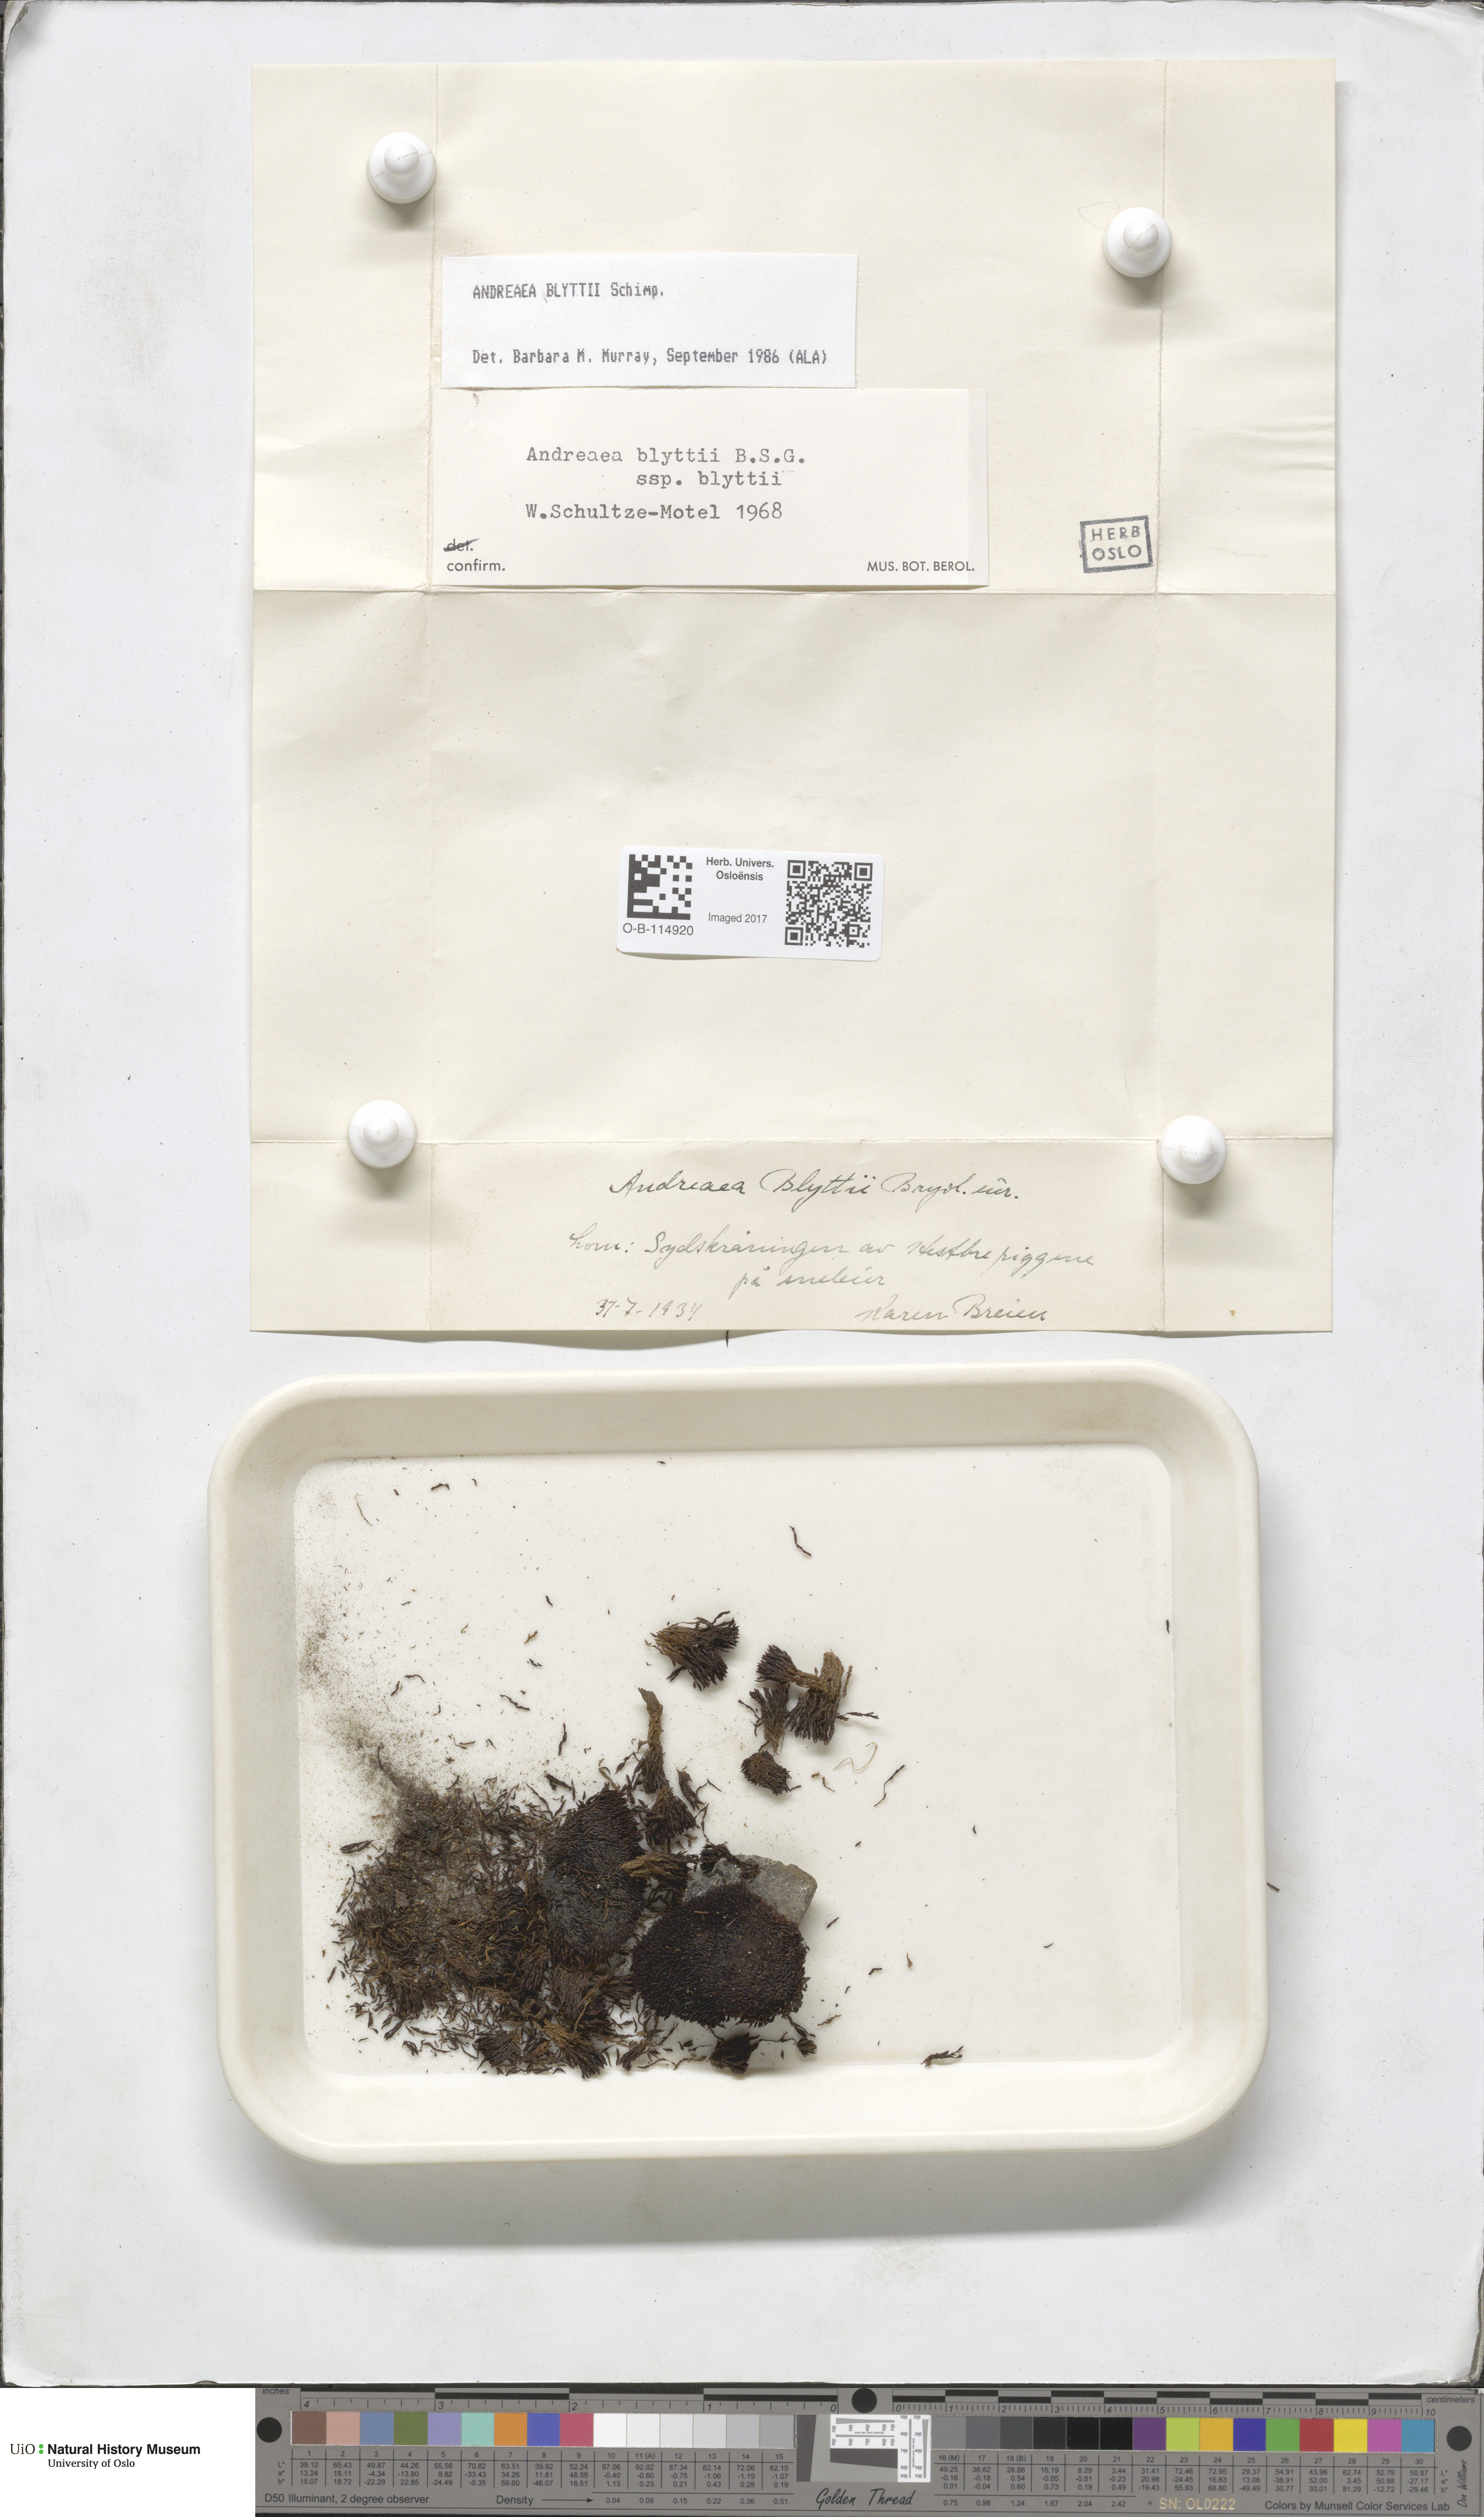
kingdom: Plantae
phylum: Bryophyta
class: Andreaeopsida
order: Andreaeales
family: Andreaeaceae
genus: Andreaea
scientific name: Andreaea hookeri
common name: Alpine rock-moss
